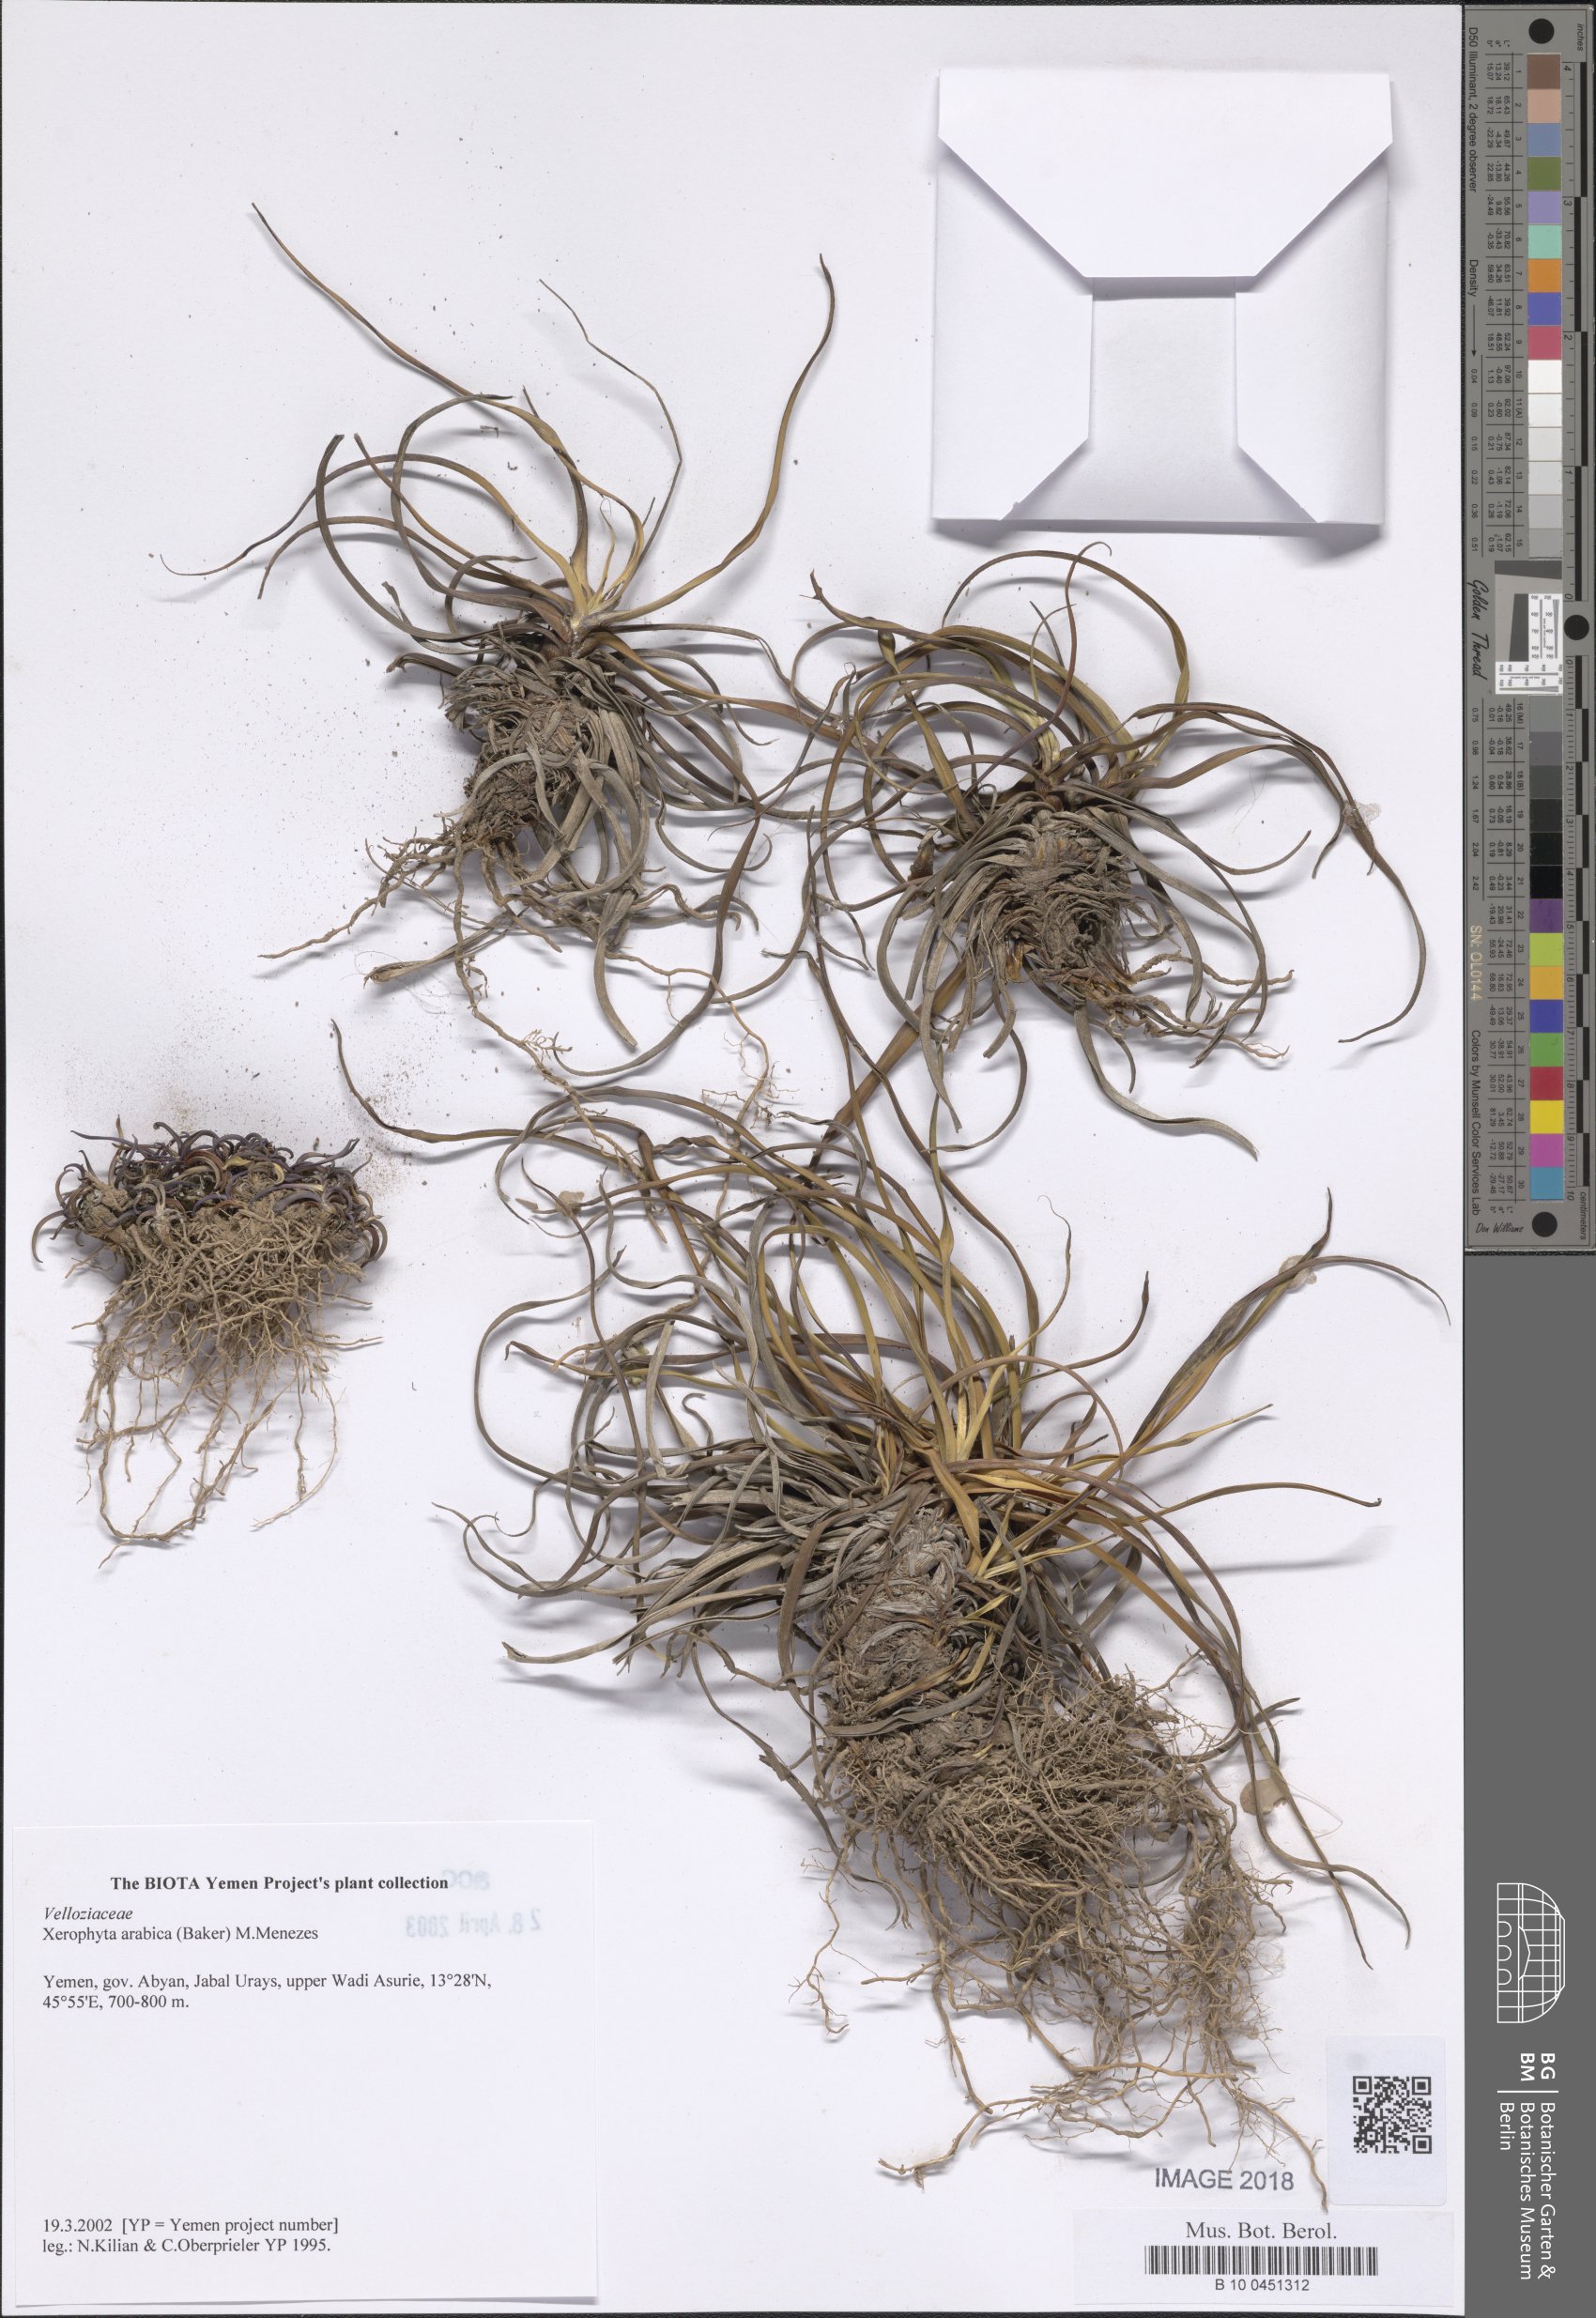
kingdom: Plantae
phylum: Tracheophyta
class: Liliopsida
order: Pandanales
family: Velloziaceae
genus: Xerophyta
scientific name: Xerophyta arabica
